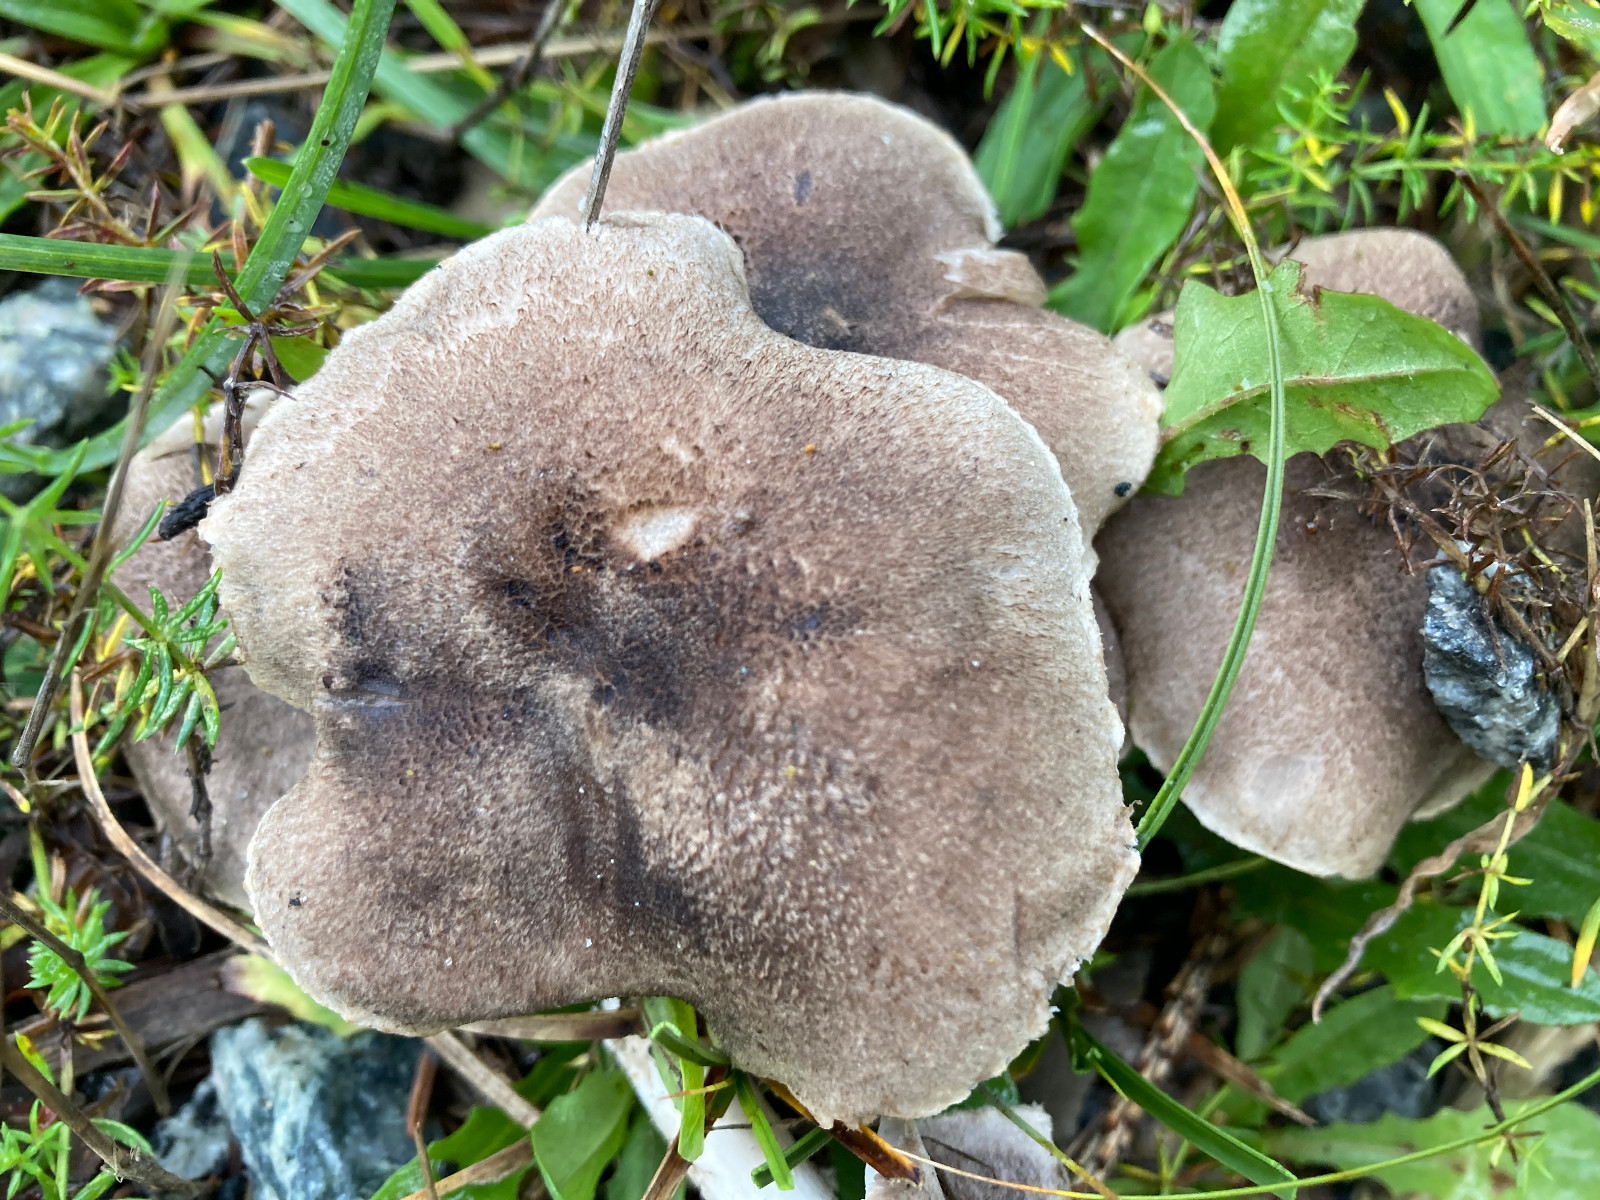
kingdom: Fungi
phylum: Basidiomycota
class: Agaricomycetes
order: Agaricales
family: Tricholomataceae
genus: Tricholoma
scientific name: Tricholoma terreum
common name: jordfarvet ridderhat
